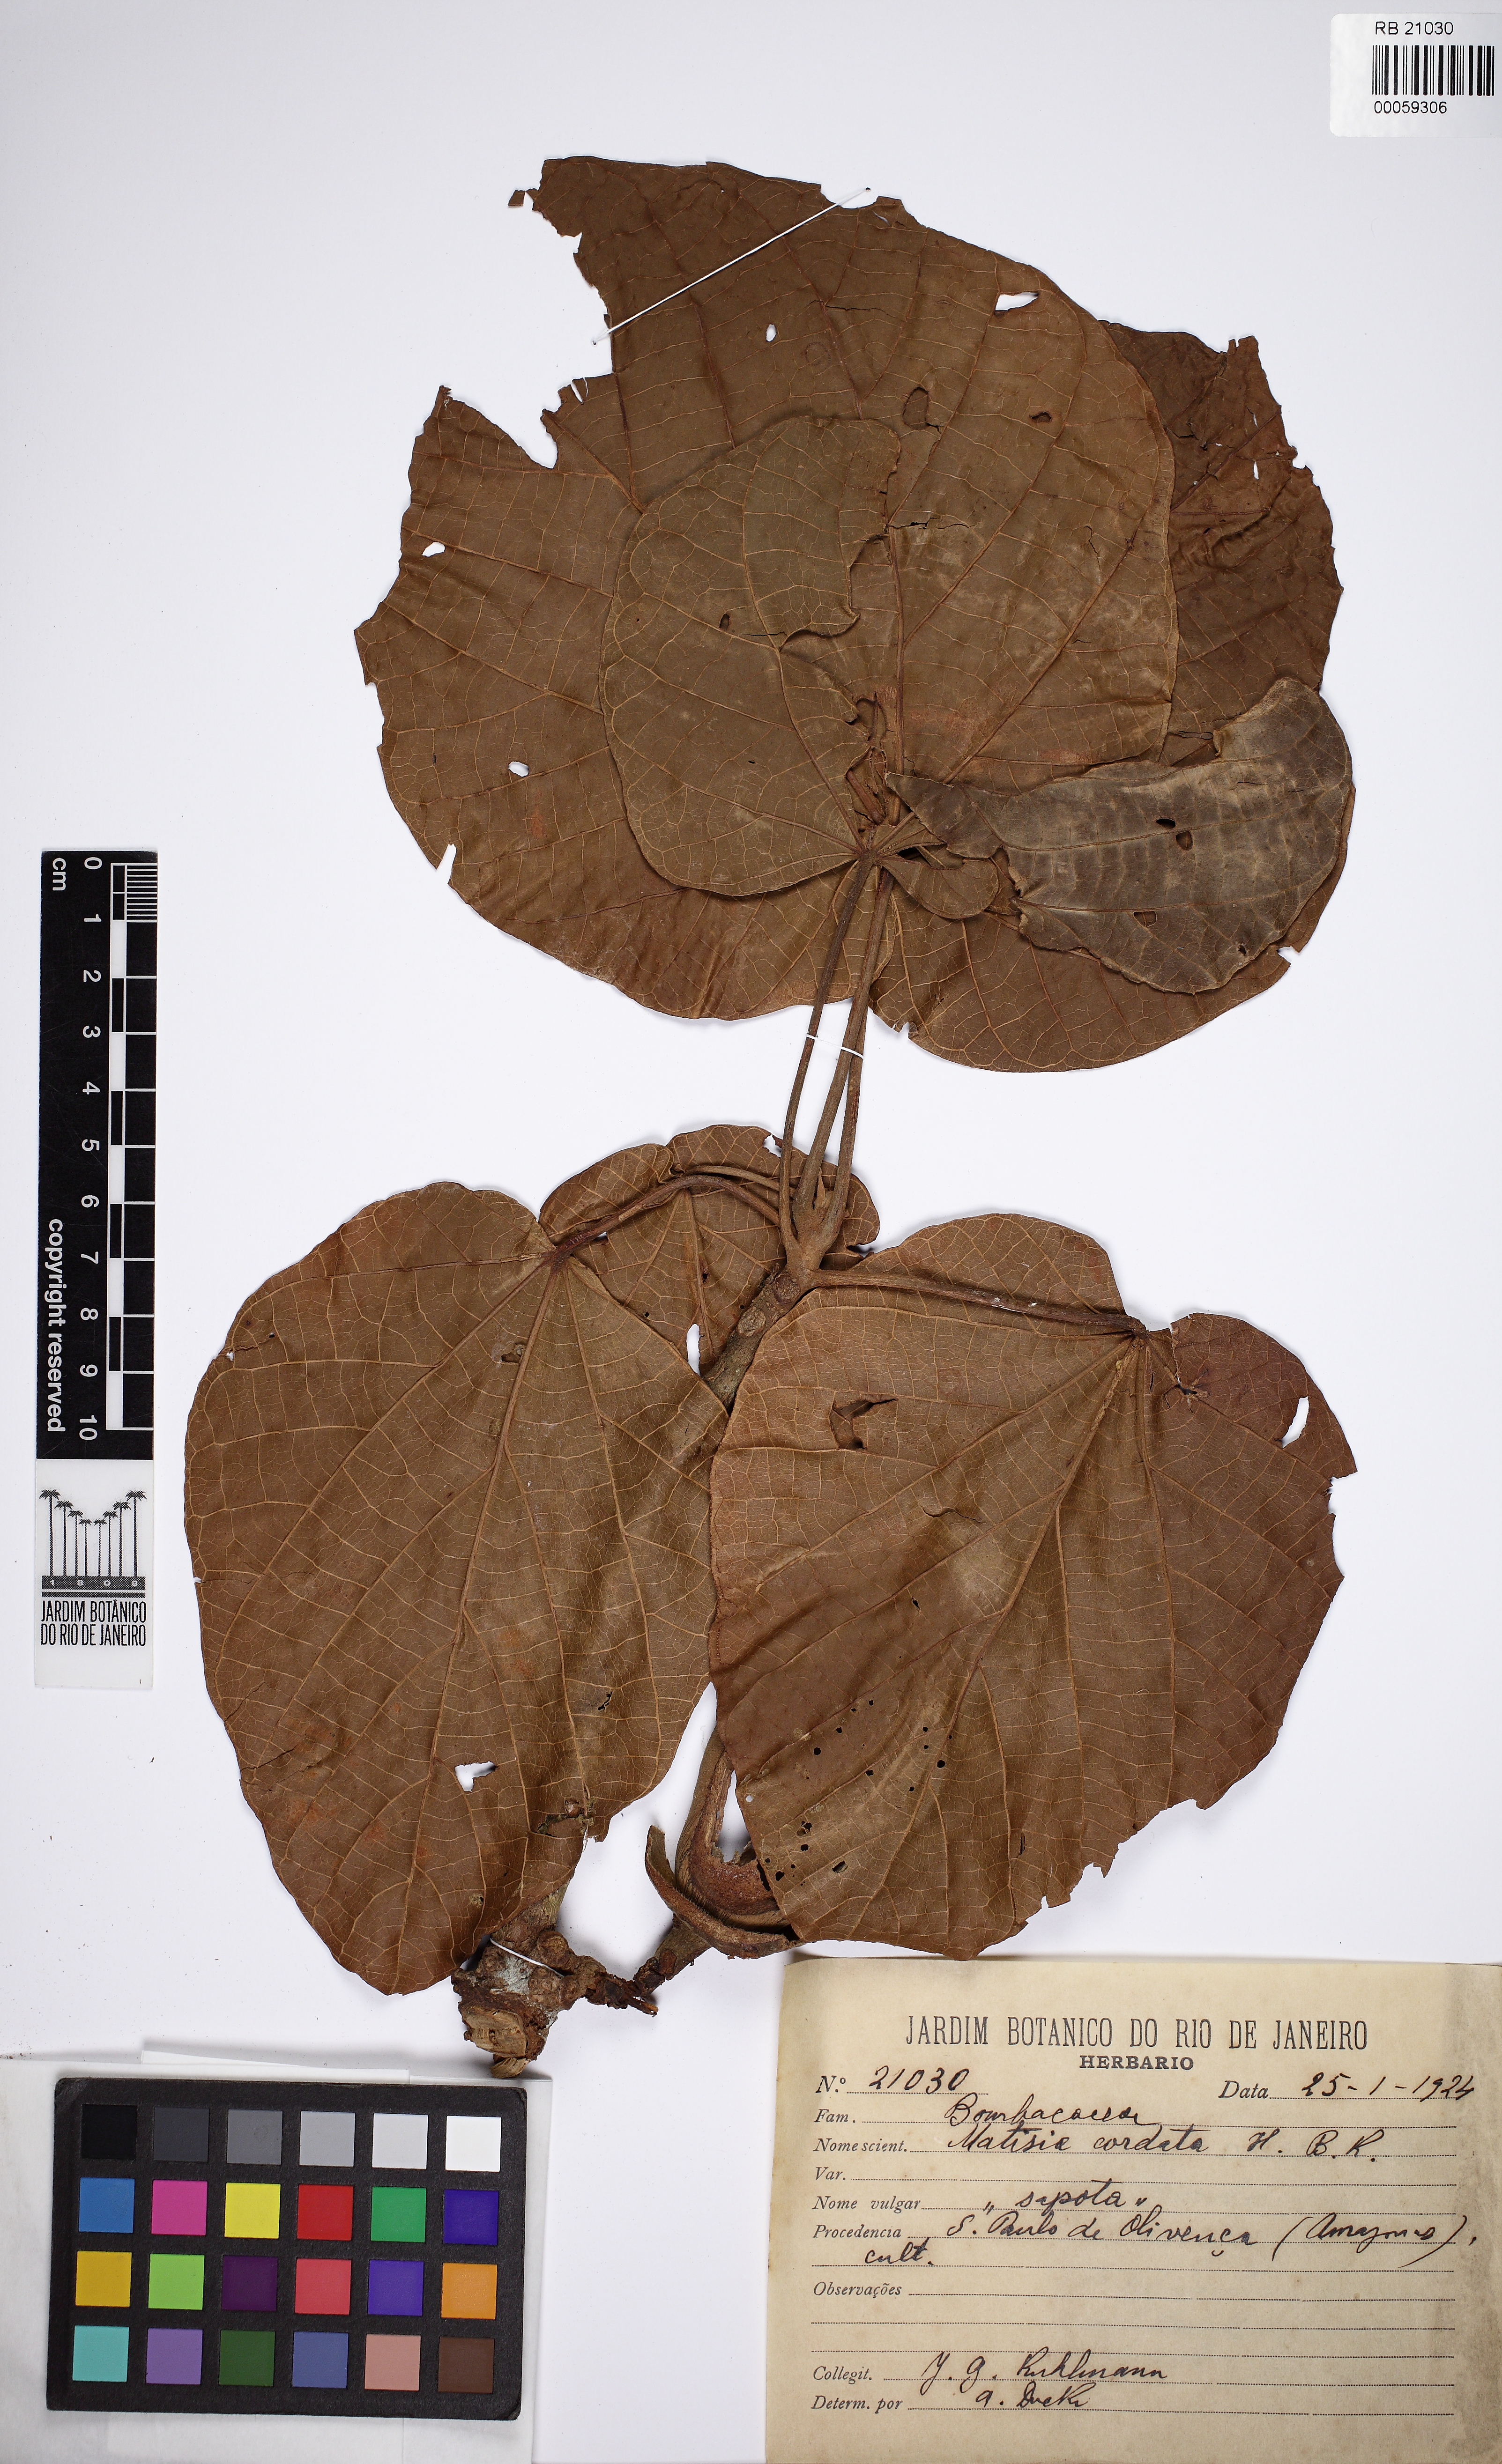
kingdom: Plantae
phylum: Tracheophyta
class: Magnoliopsida
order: Malvales
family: Malvaceae
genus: Matisia
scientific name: Matisia cordata
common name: South american sapote
